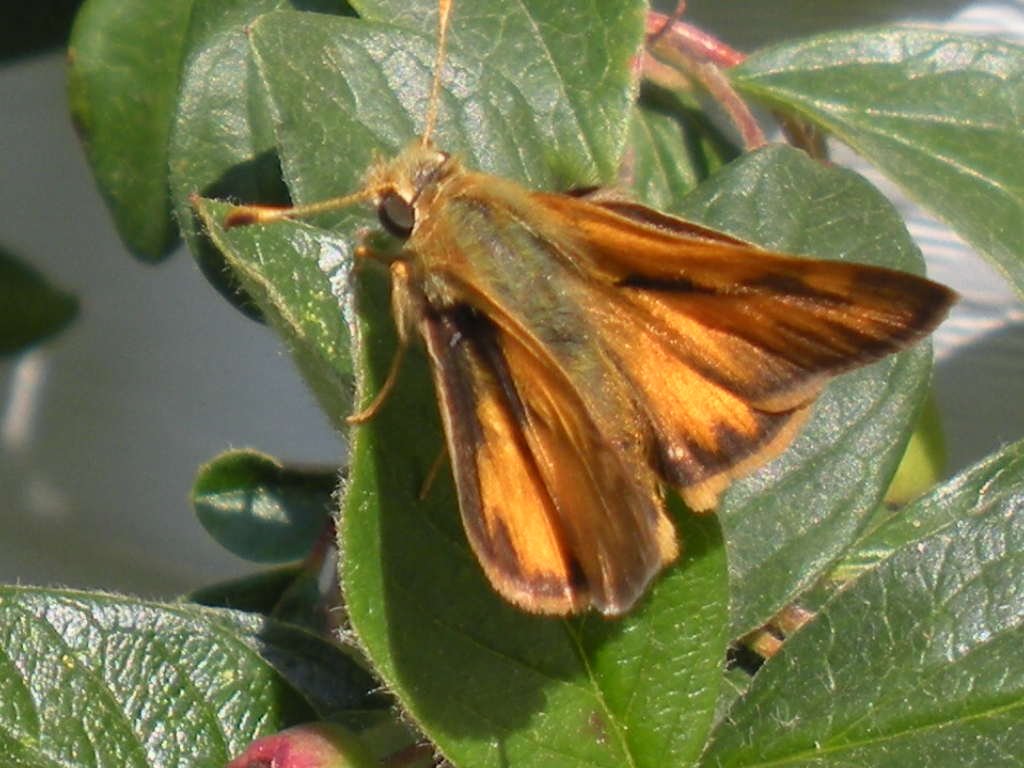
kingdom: Animalia
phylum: Arthropoda
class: Insecta
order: Lepidoptera
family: Hesperiidae
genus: Ochlodes
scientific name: Ochlodes sylvanoides
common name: Woodland Skipper
